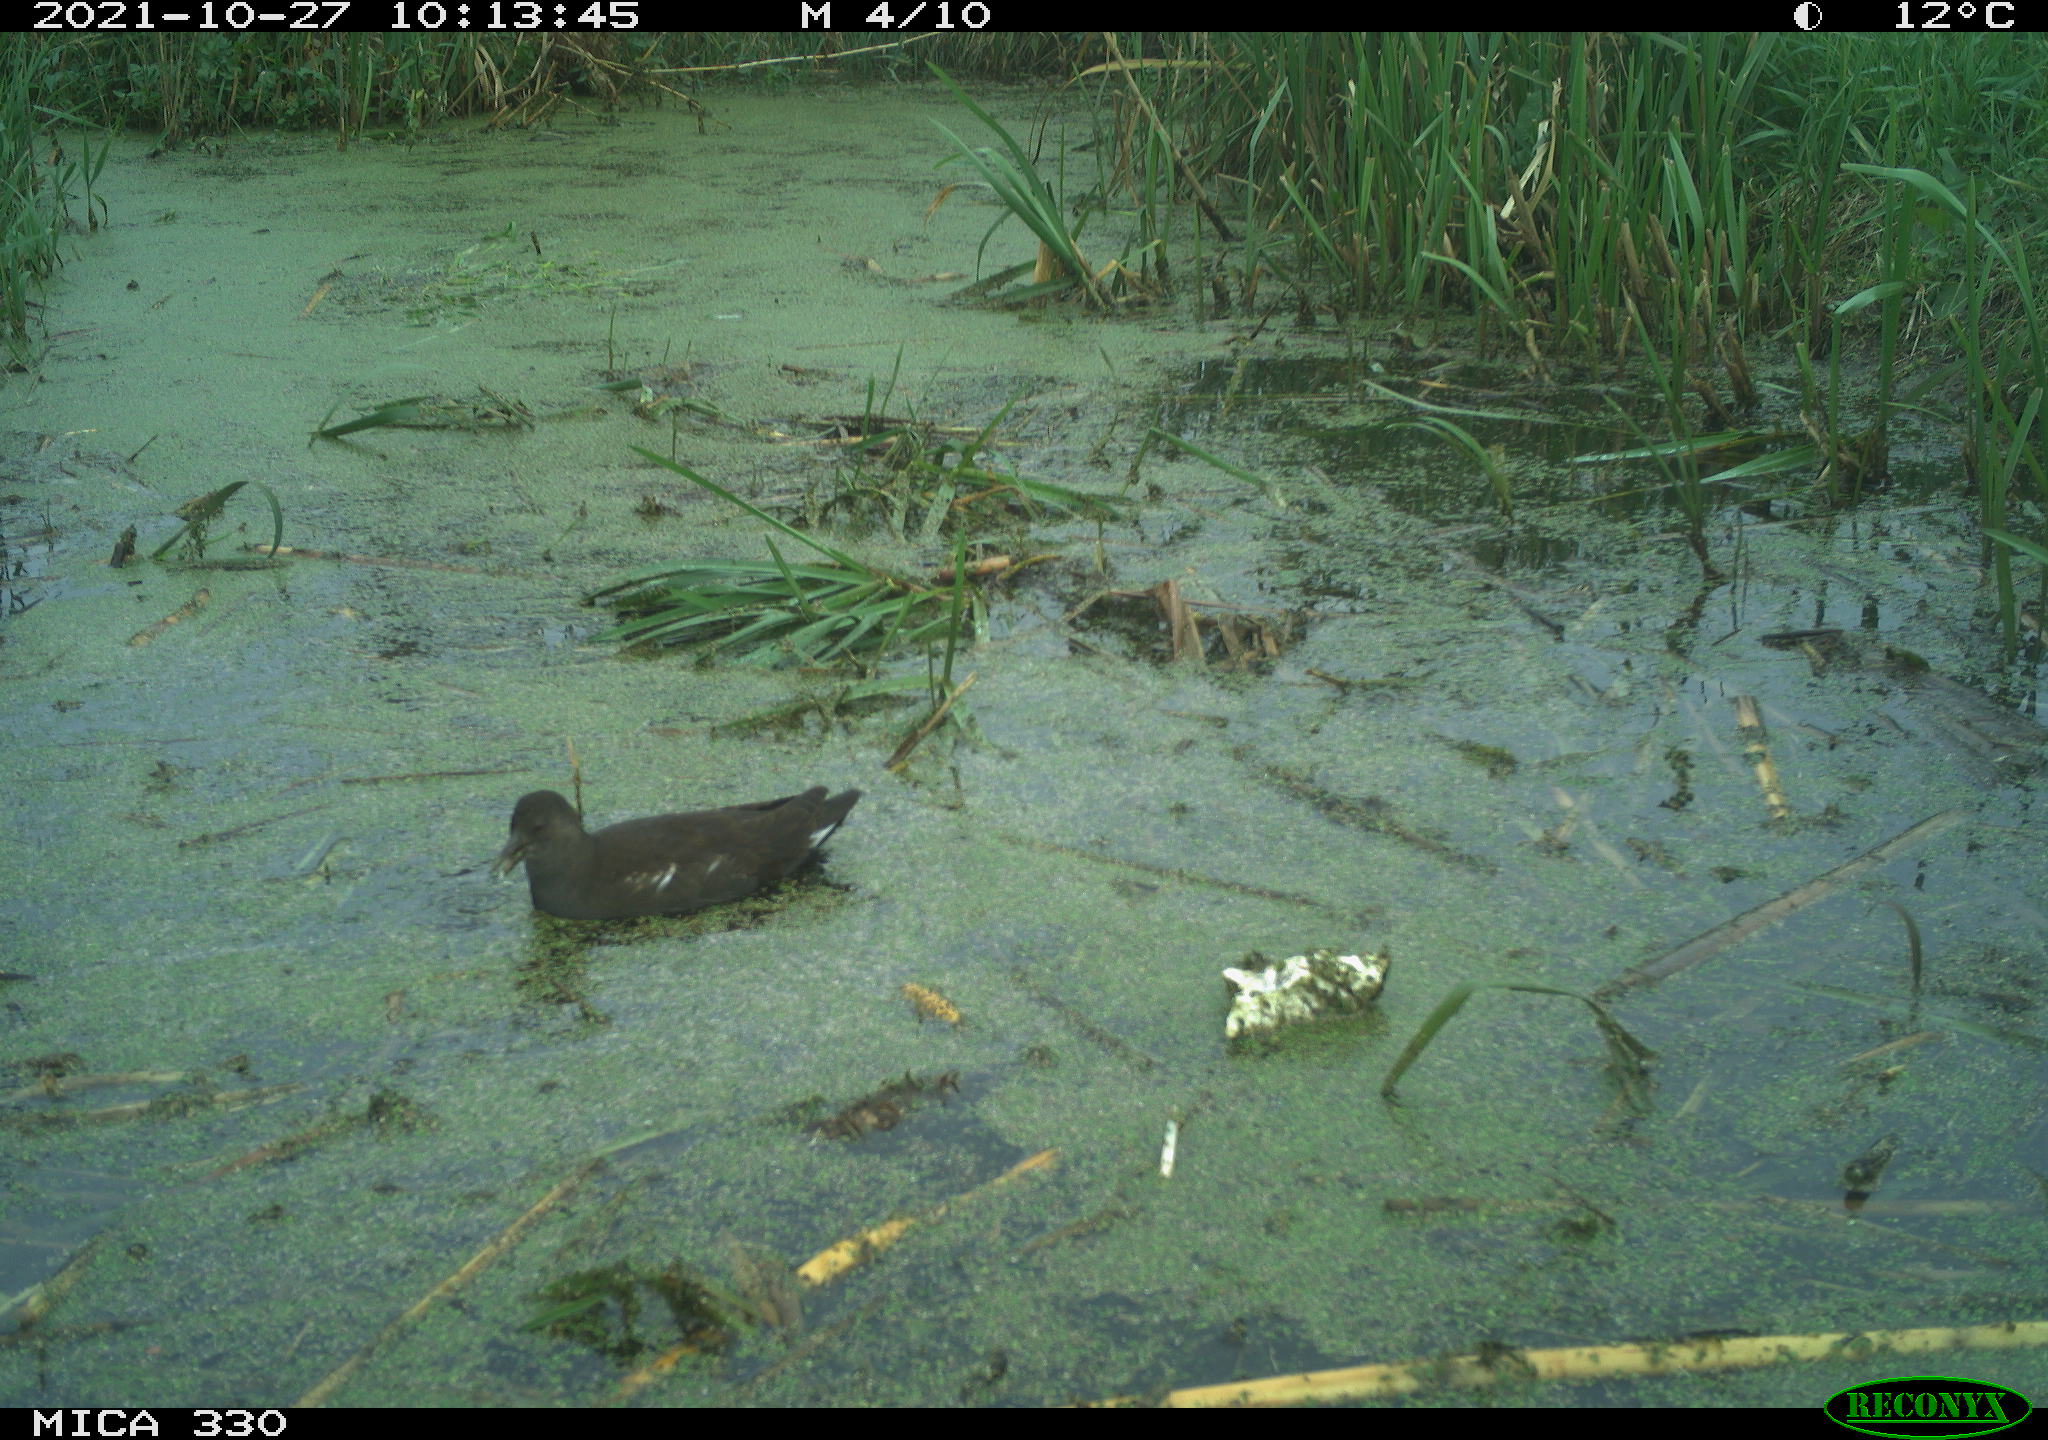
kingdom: Animalia
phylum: Chordata
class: Aves
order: Gruiformes
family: Rallidae
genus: Gallinula
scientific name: Gallinula chloropus
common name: Common moorhen
